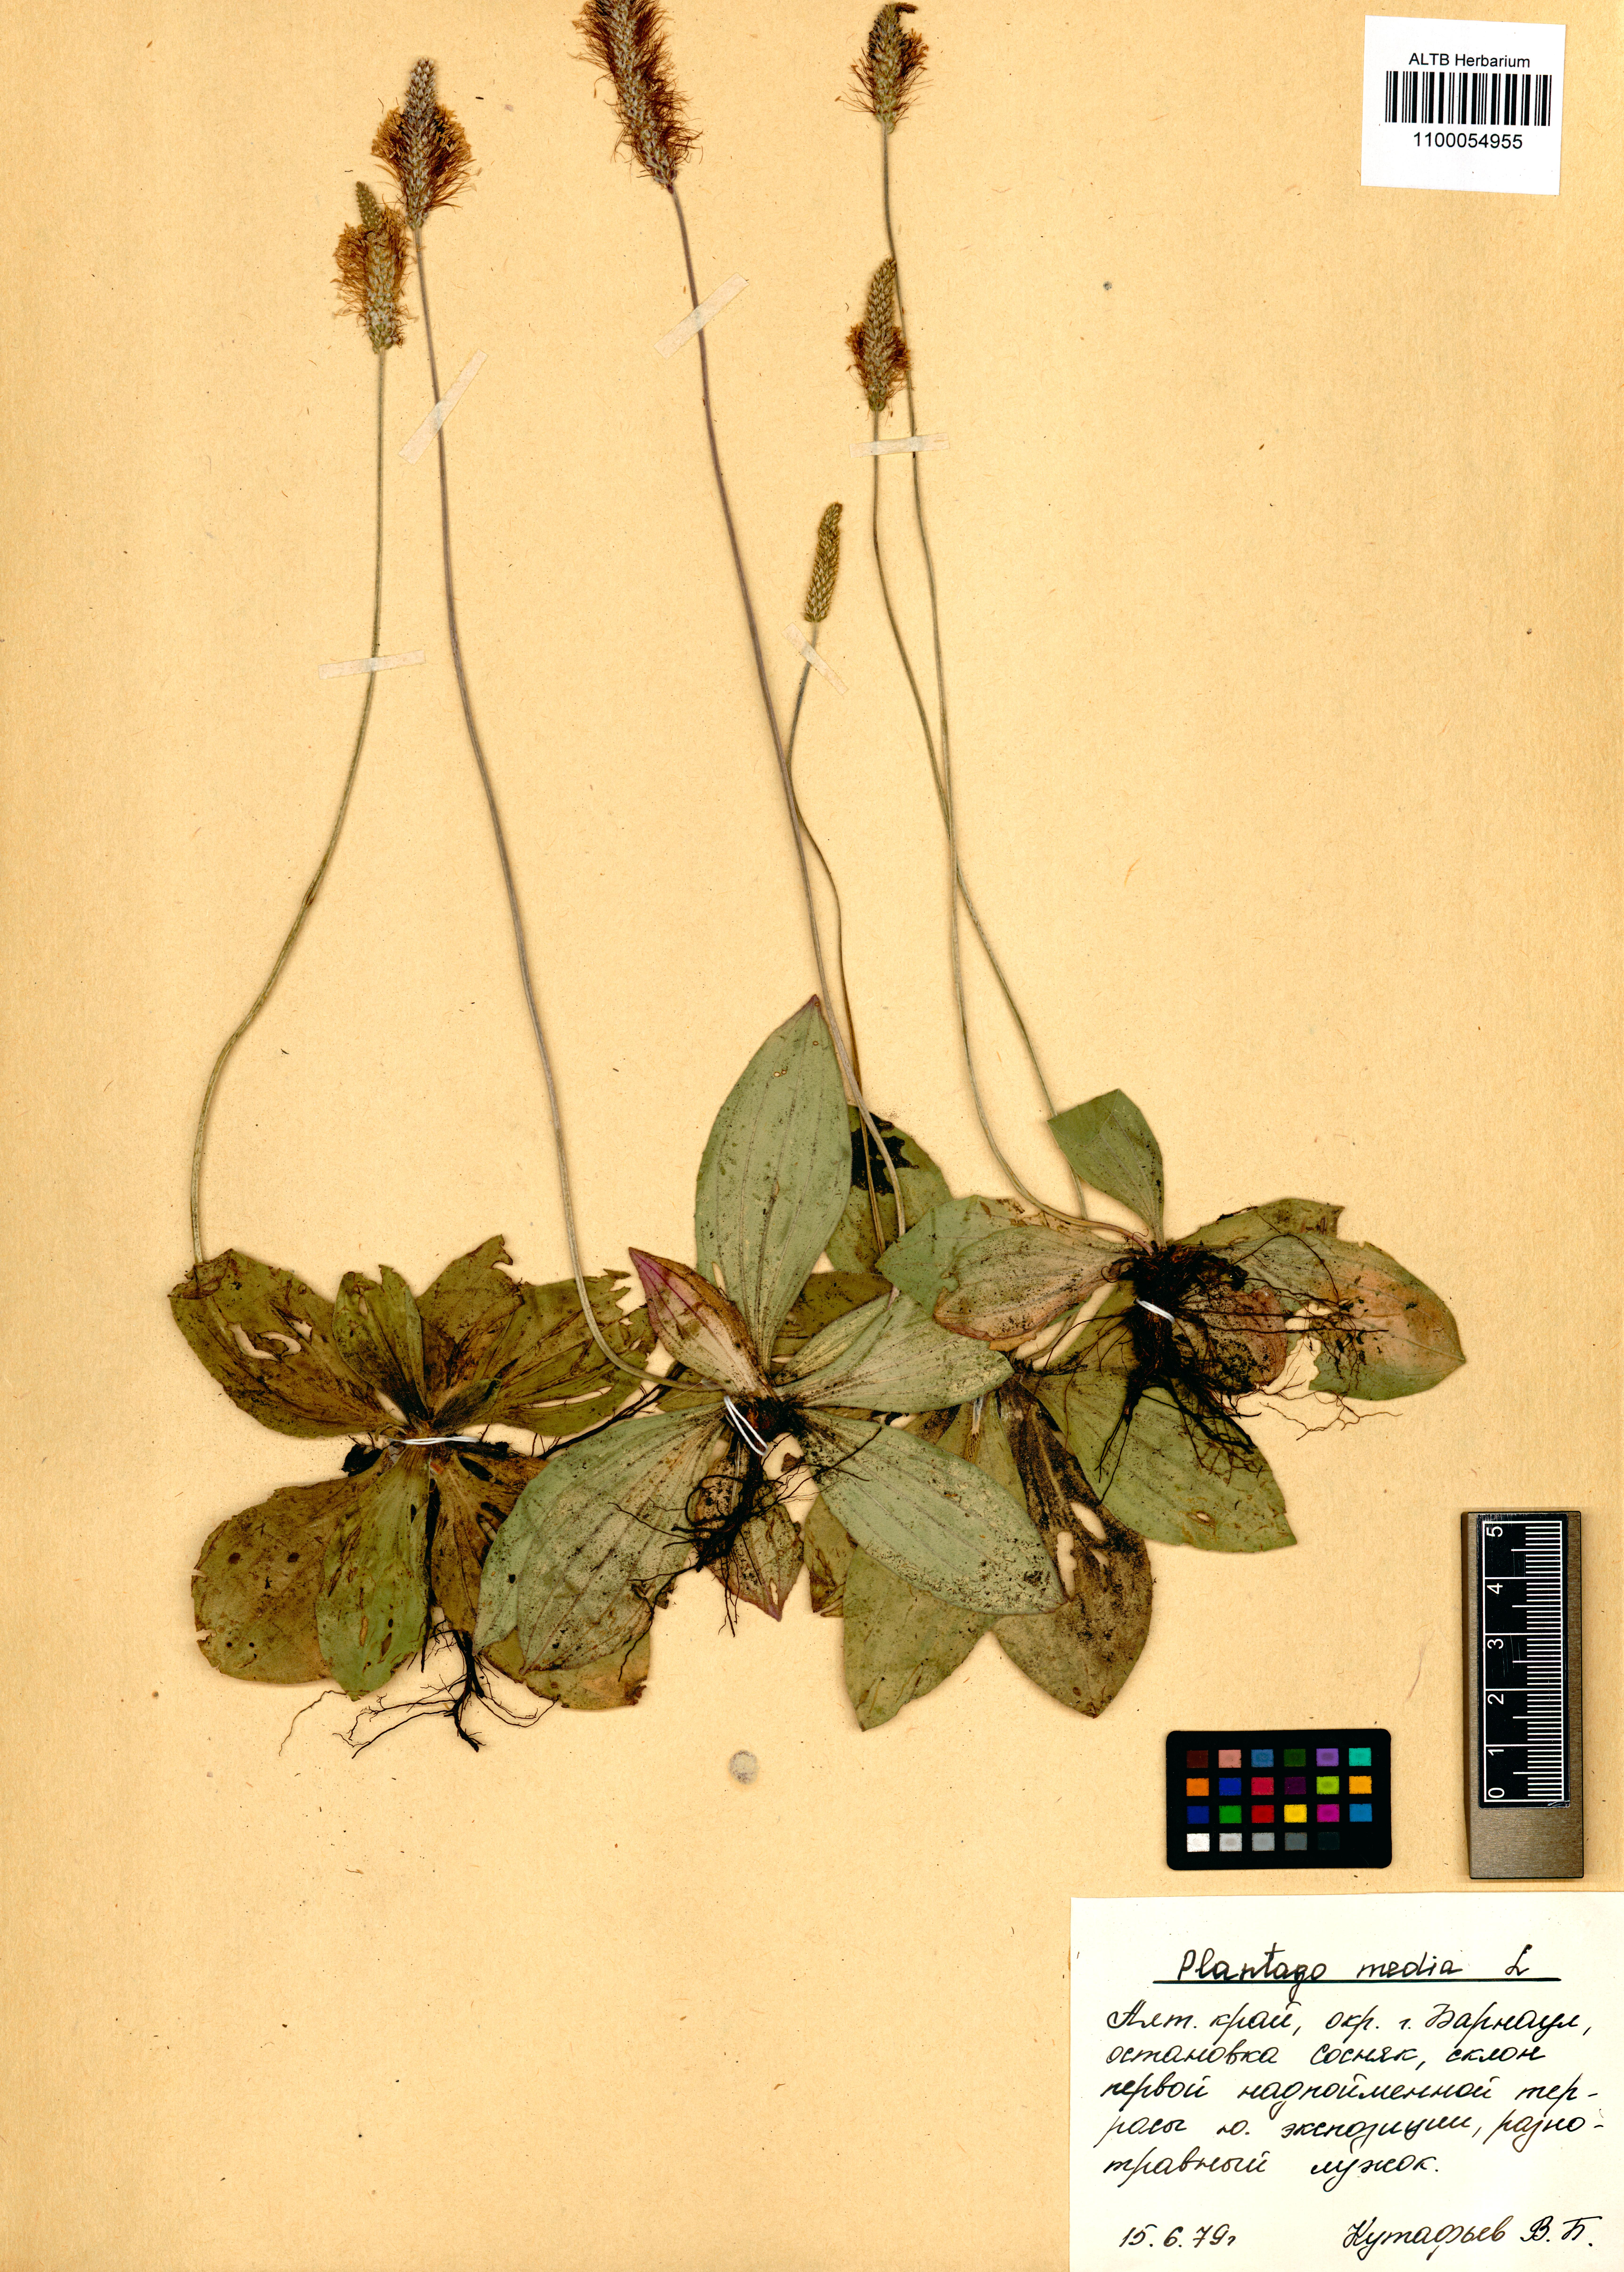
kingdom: Plantae
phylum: Tracheophyta
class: Magnoliopsida
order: Lamiales
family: Plantaginaceae
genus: Plantago
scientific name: Plantago media
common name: Hoary plantain
